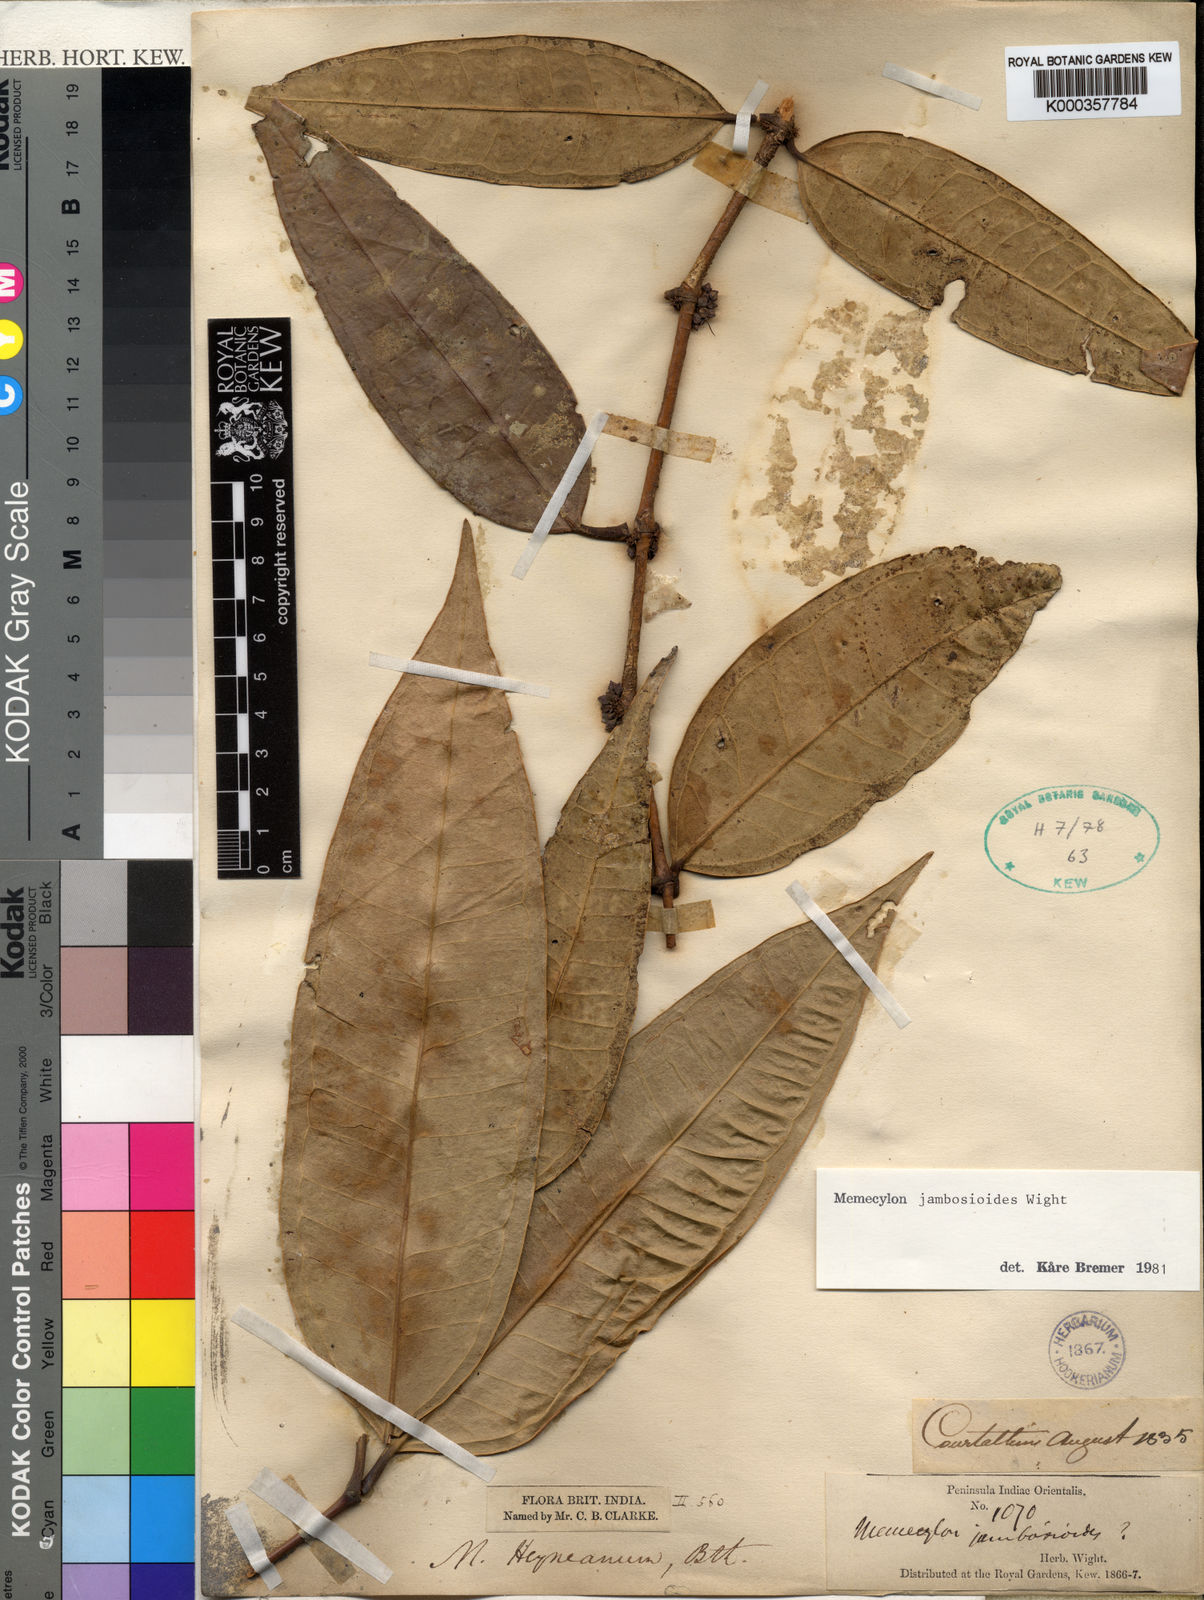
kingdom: Plantae
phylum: Tracheophyta
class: Magnoliopsida
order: Myrtales
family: Melastomataceae
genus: Memecylon
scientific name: Memecylon heyneanum
